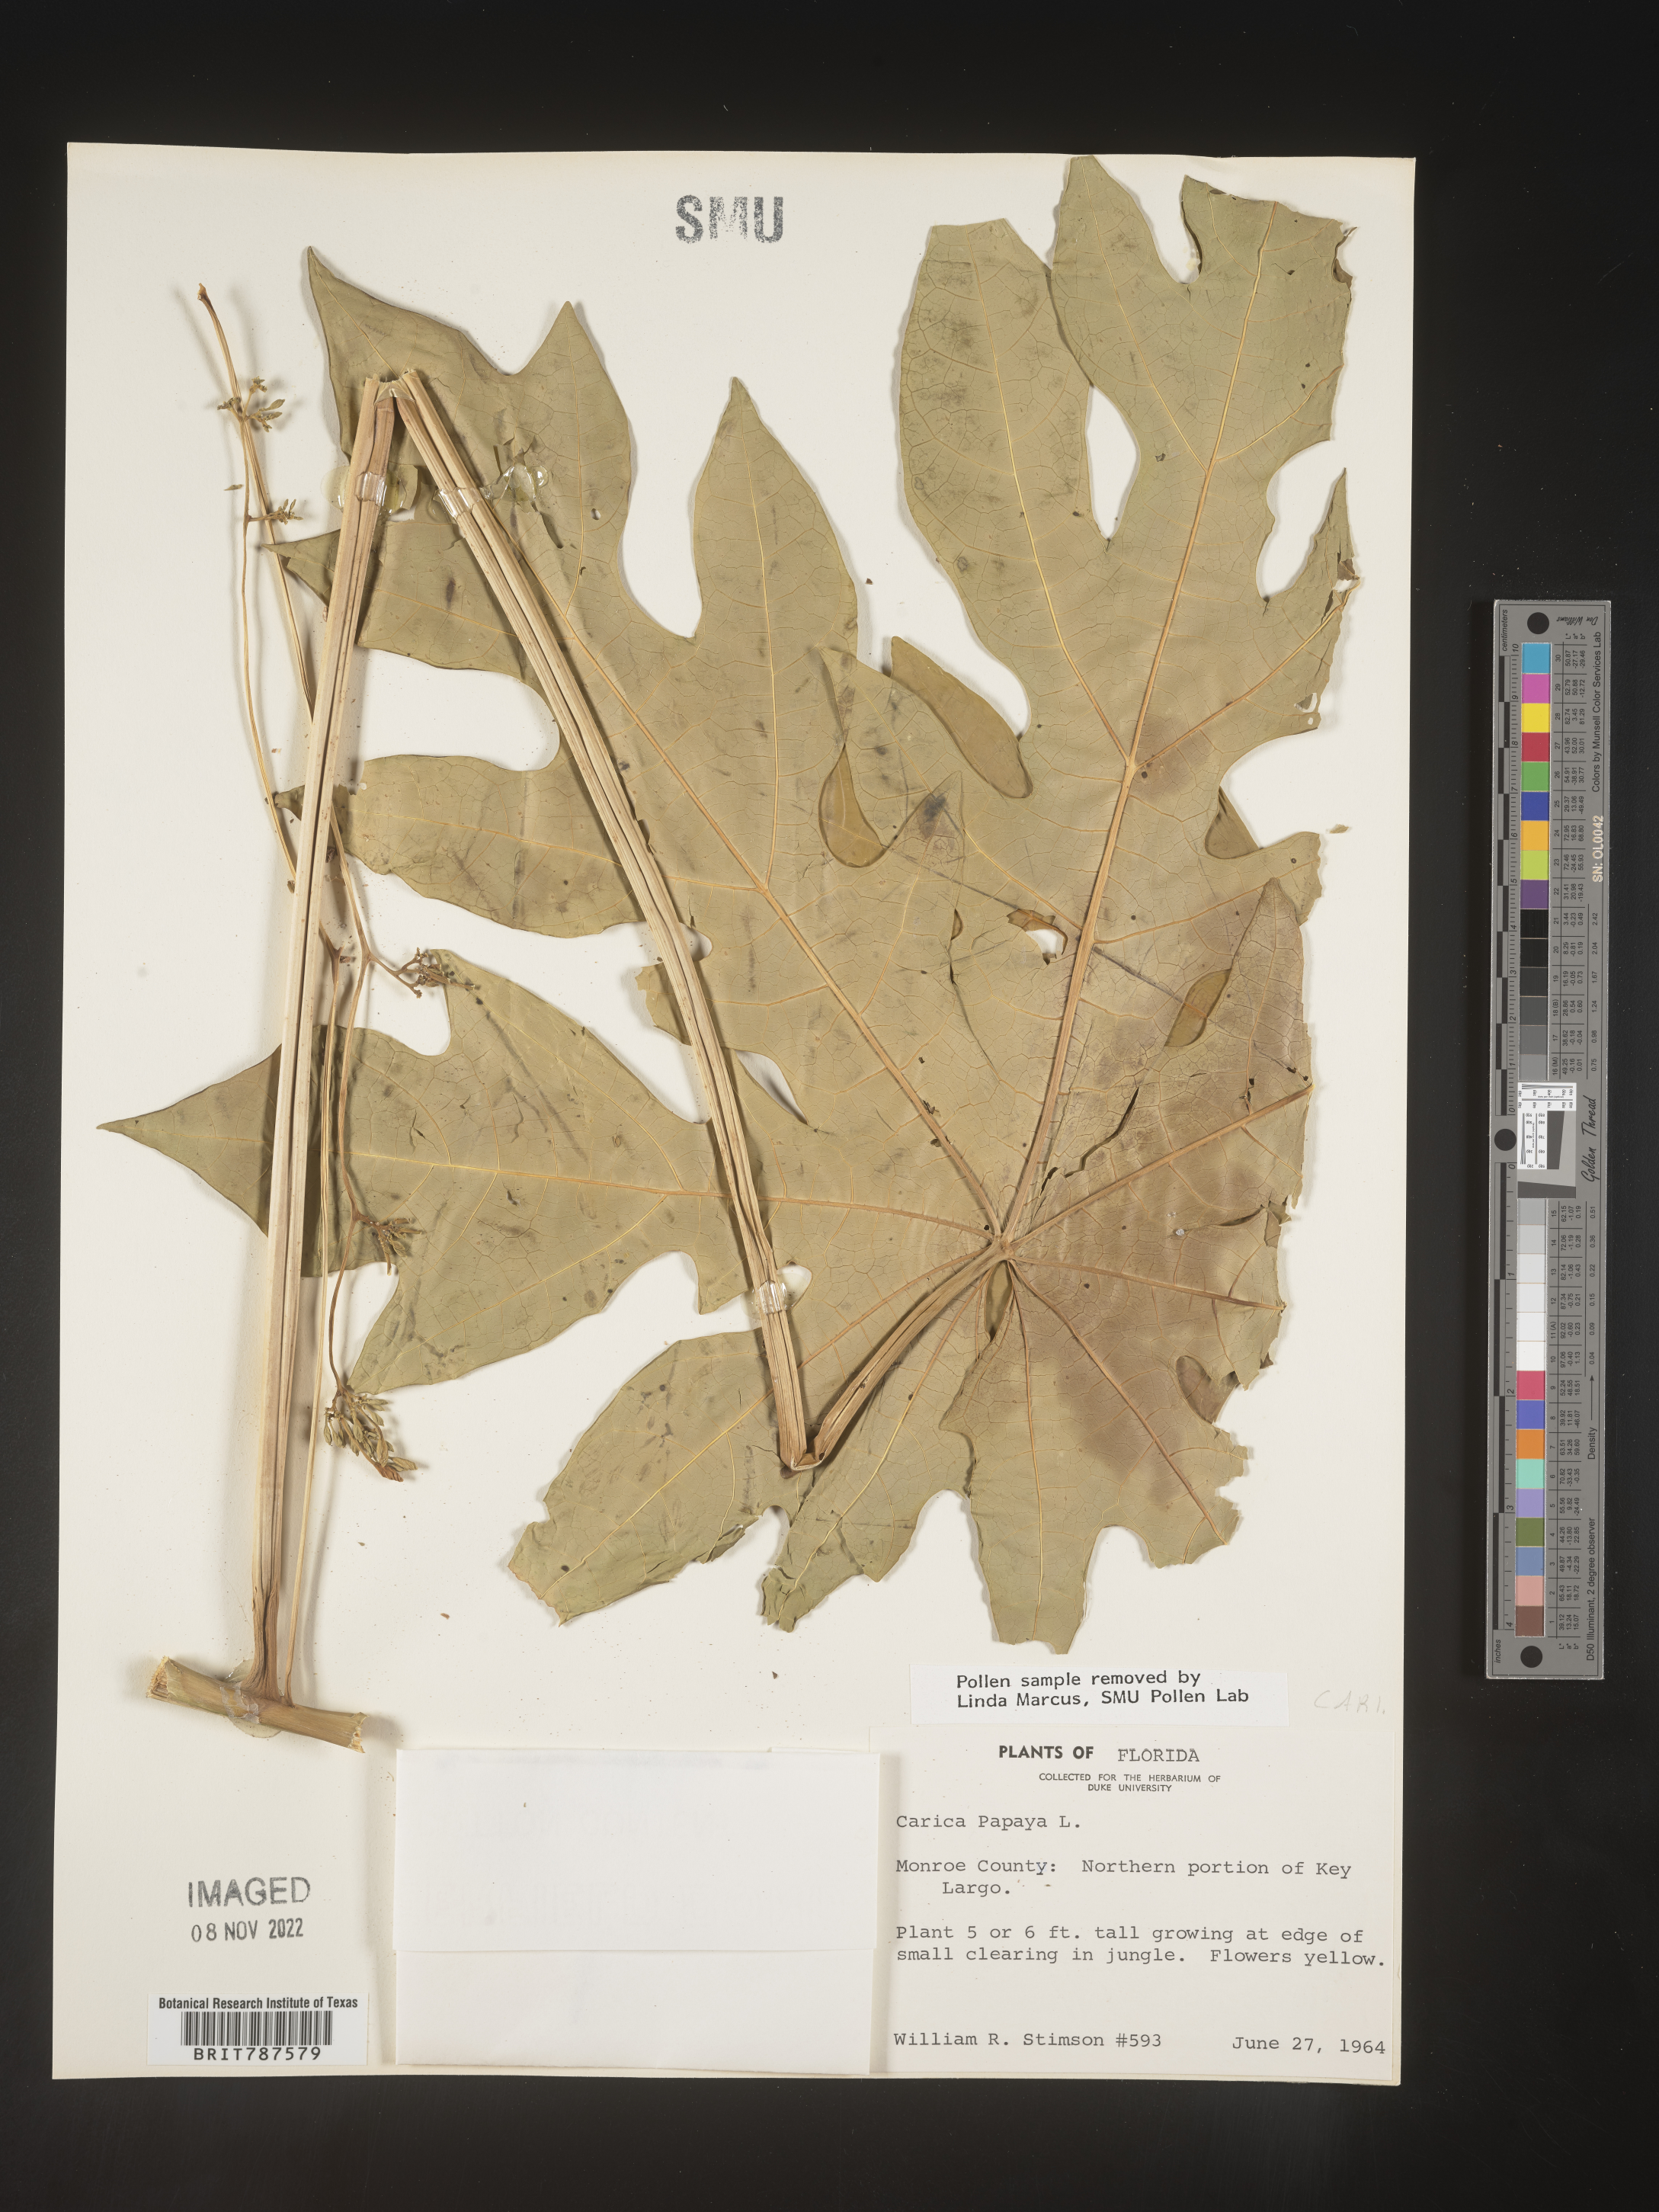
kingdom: Plantae
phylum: Tracheophyta
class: Magnoliopsida
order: Brassicales
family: Caricaceae
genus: Carica
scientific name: Carica
